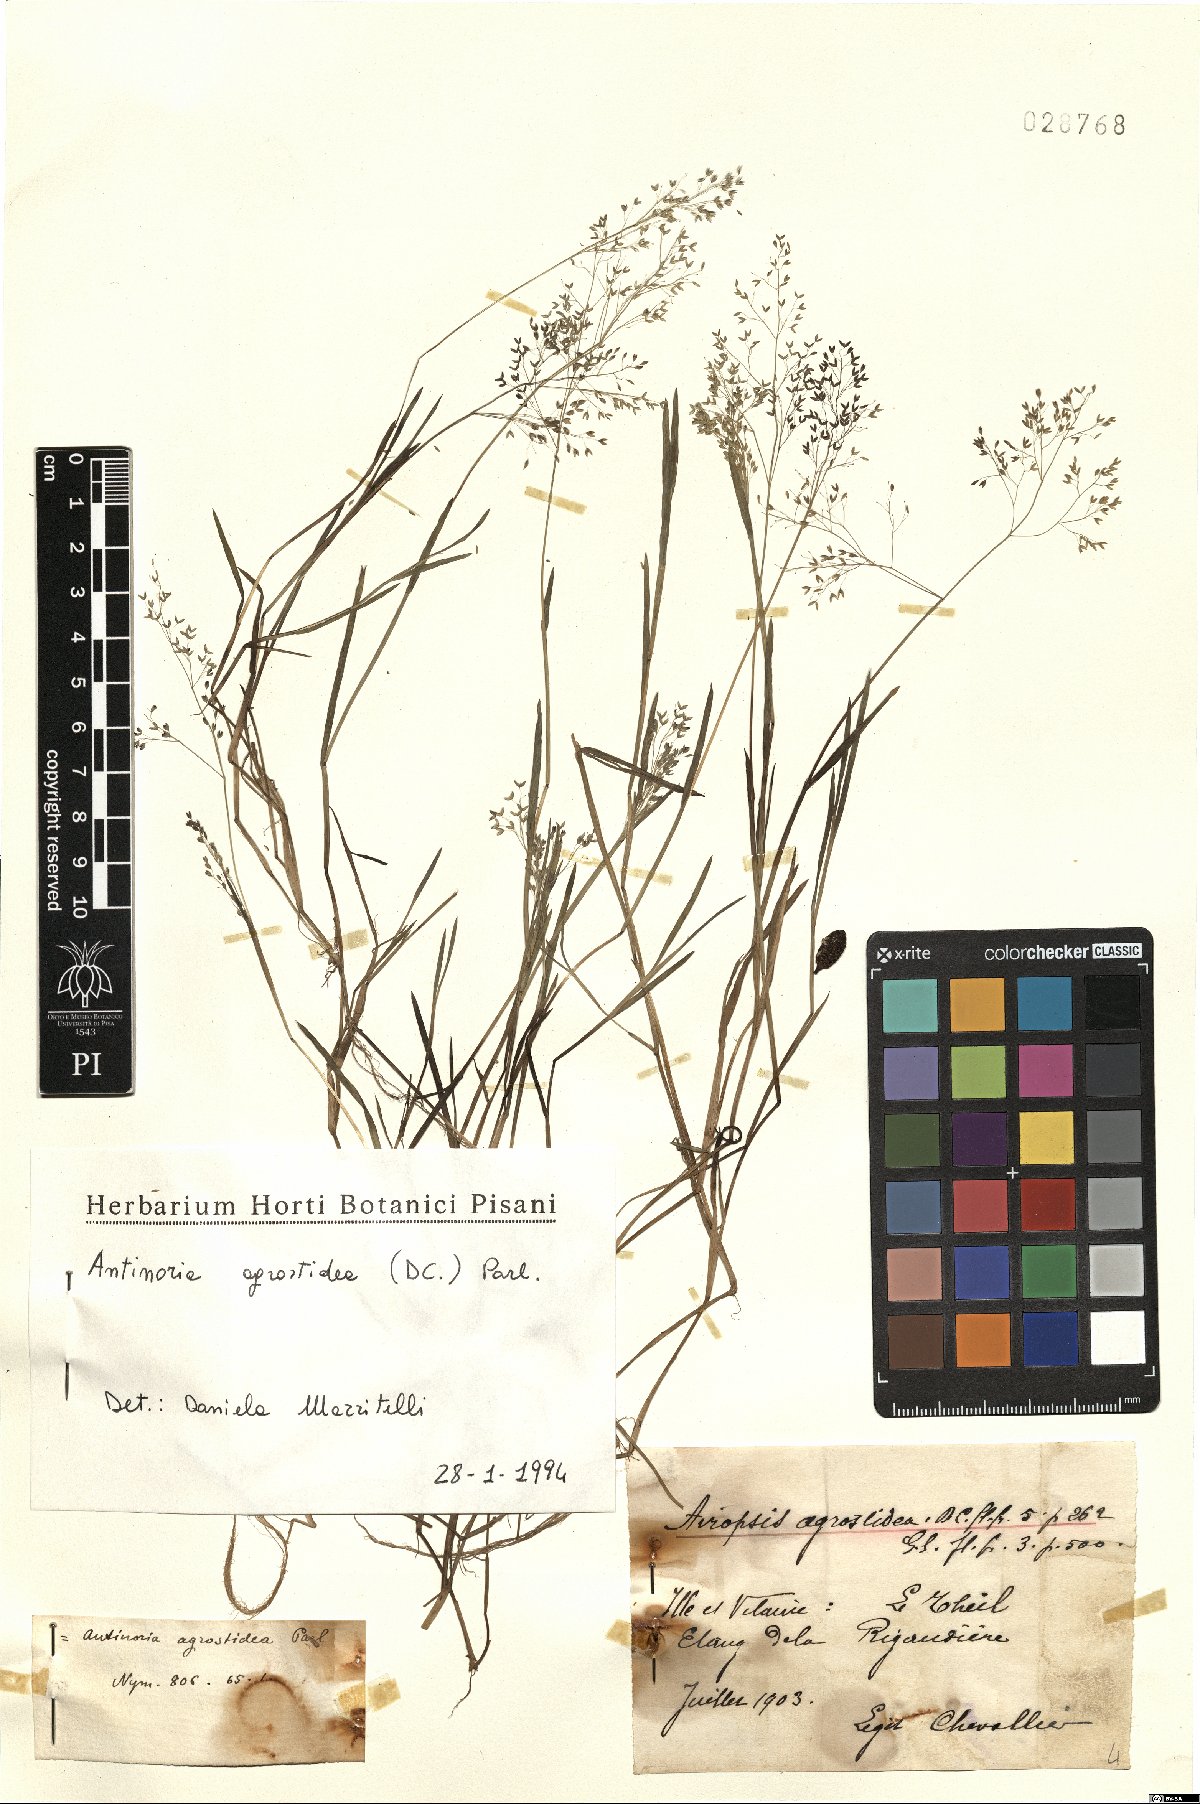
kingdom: Plantae
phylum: Tracheophyta
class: Liliopsida
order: Poales
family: Poaceae
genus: Antinoria
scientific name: Antinoria agrostidea
